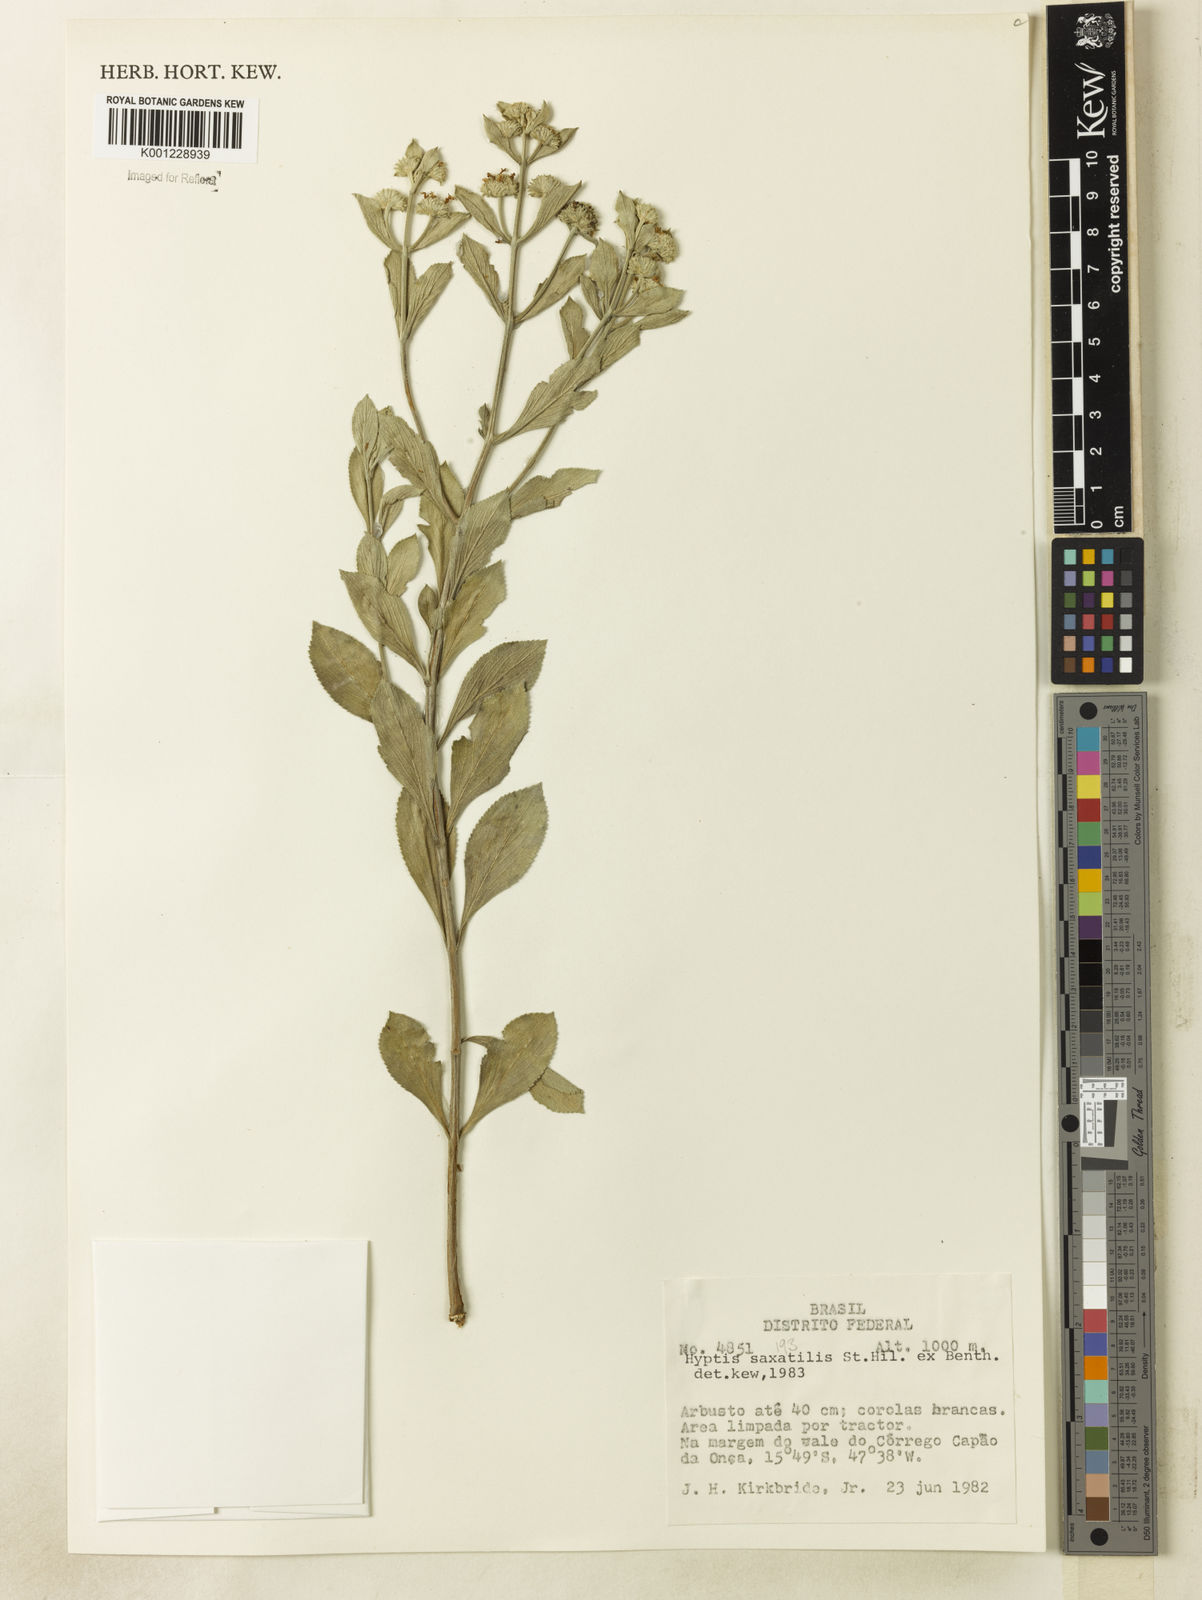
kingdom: Plantae
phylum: Tracheophyta
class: Magnoliopsida
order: Lamiales
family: Lamiaceae
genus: Hyptis
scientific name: Hyptis saxatilis
